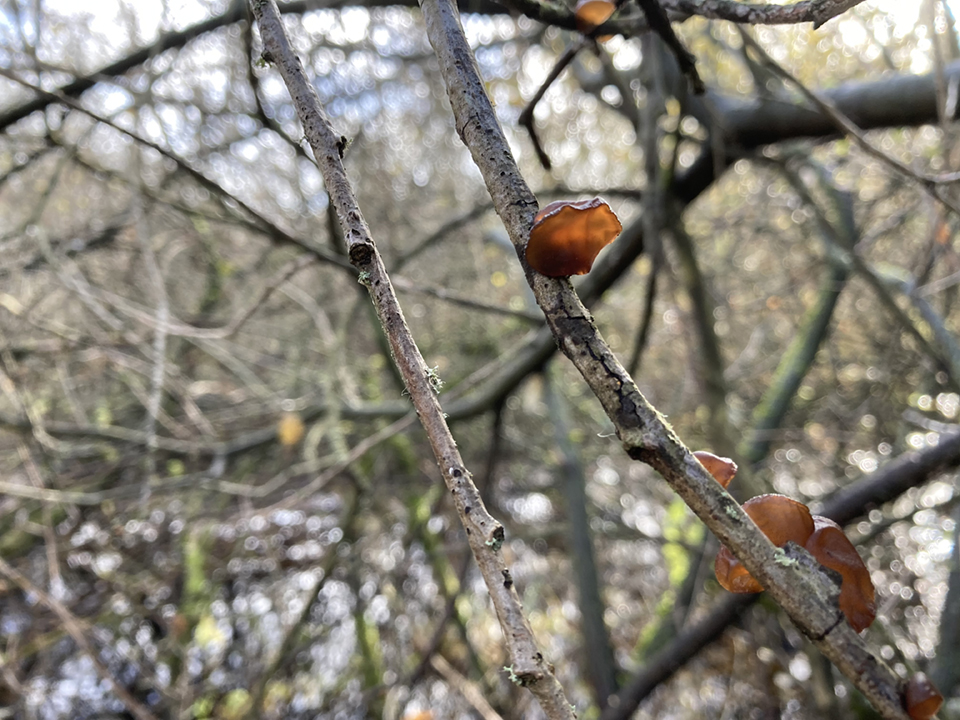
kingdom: Fungi
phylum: Basidiomycota
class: Agaricomycetes
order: Auriculariales
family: Auriculariaceae
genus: Exidia
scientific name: Exidia recisa
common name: pile-bævretop
